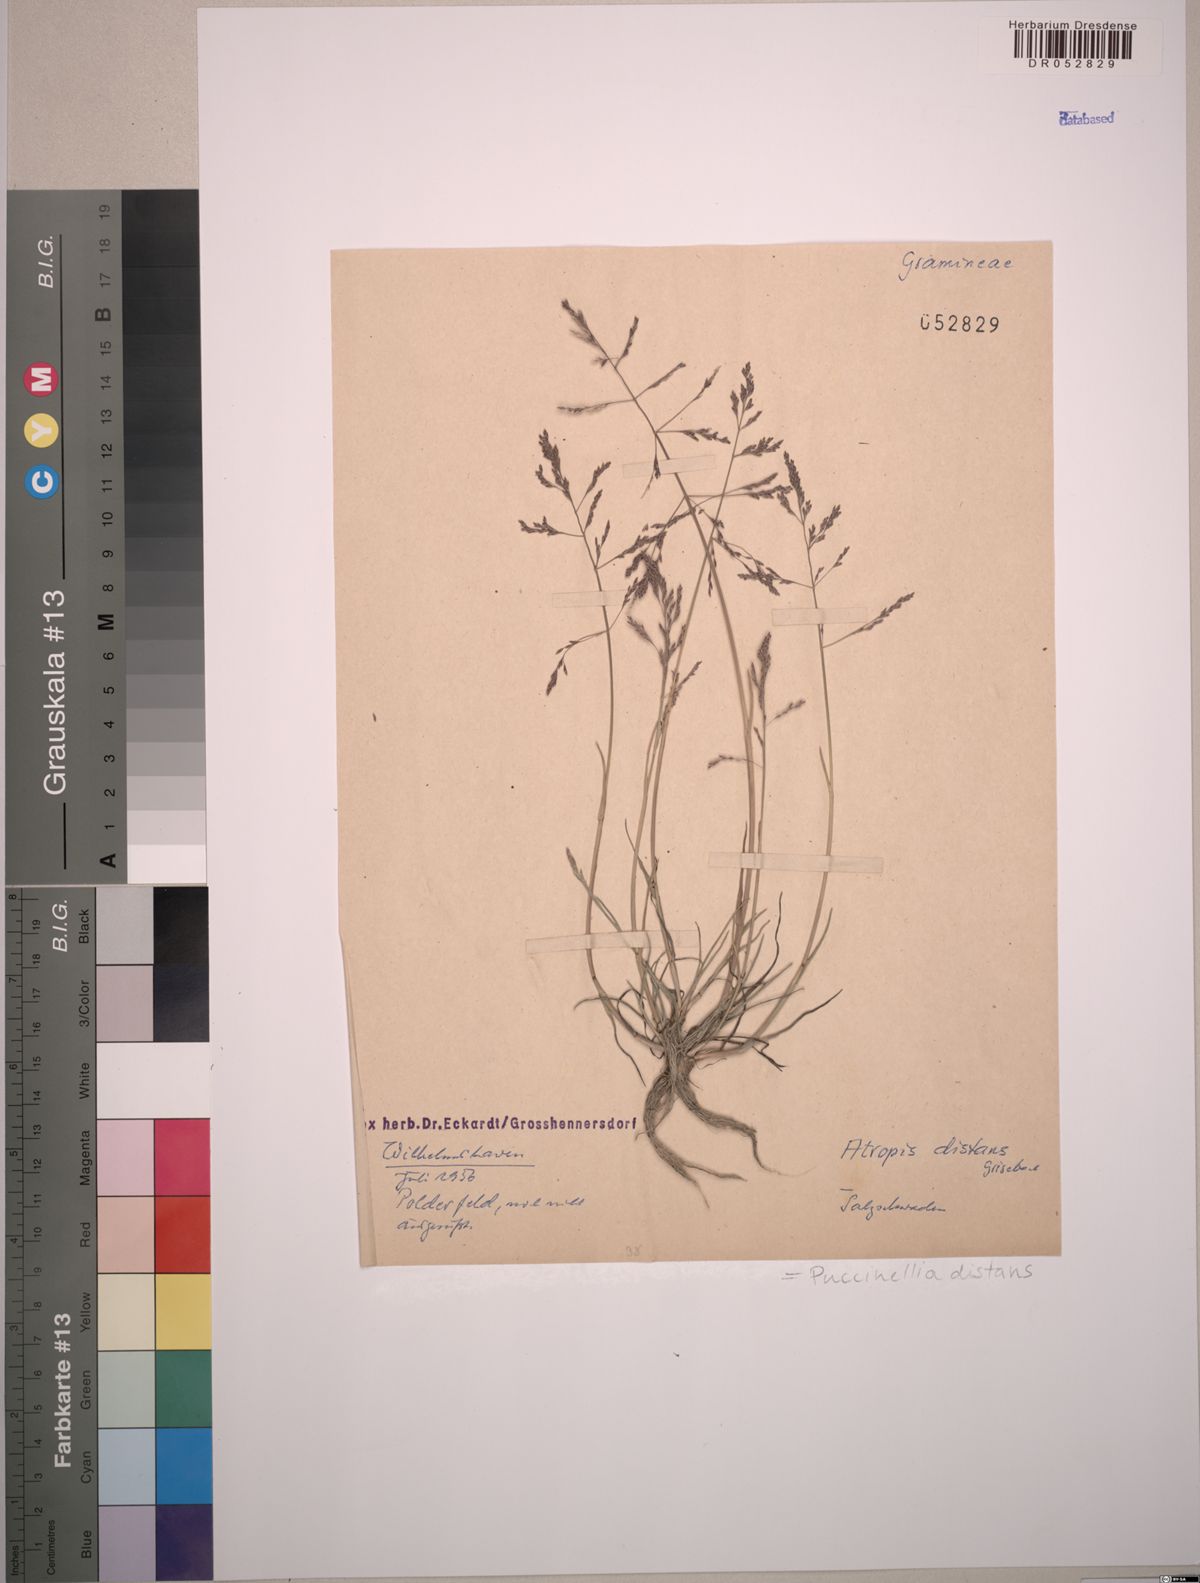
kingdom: Plantae
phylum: Tracheophyta
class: Liliopsida
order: Poales
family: Poaceae
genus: Puccinellia
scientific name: Puccinellia distans
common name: Weeping alkaligrass
